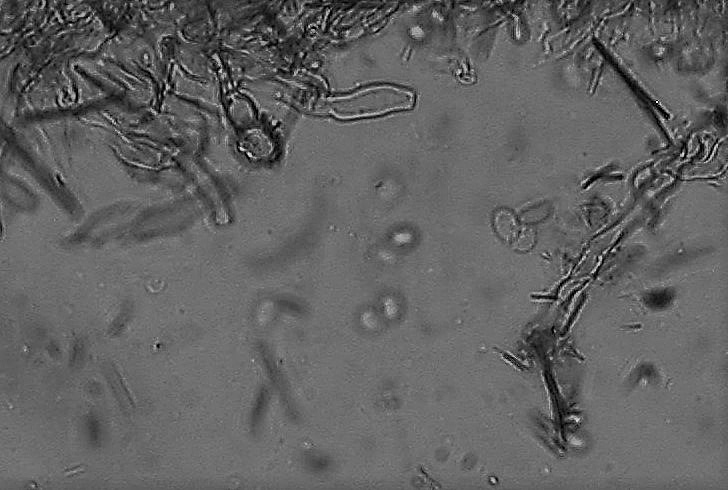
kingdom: Fungi
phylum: Basidiomycota
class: Agaricomycetes
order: Hymenochaetales
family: Hyphodontiaceae
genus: Hyphodontia
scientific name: Hyphodontia pallidula
